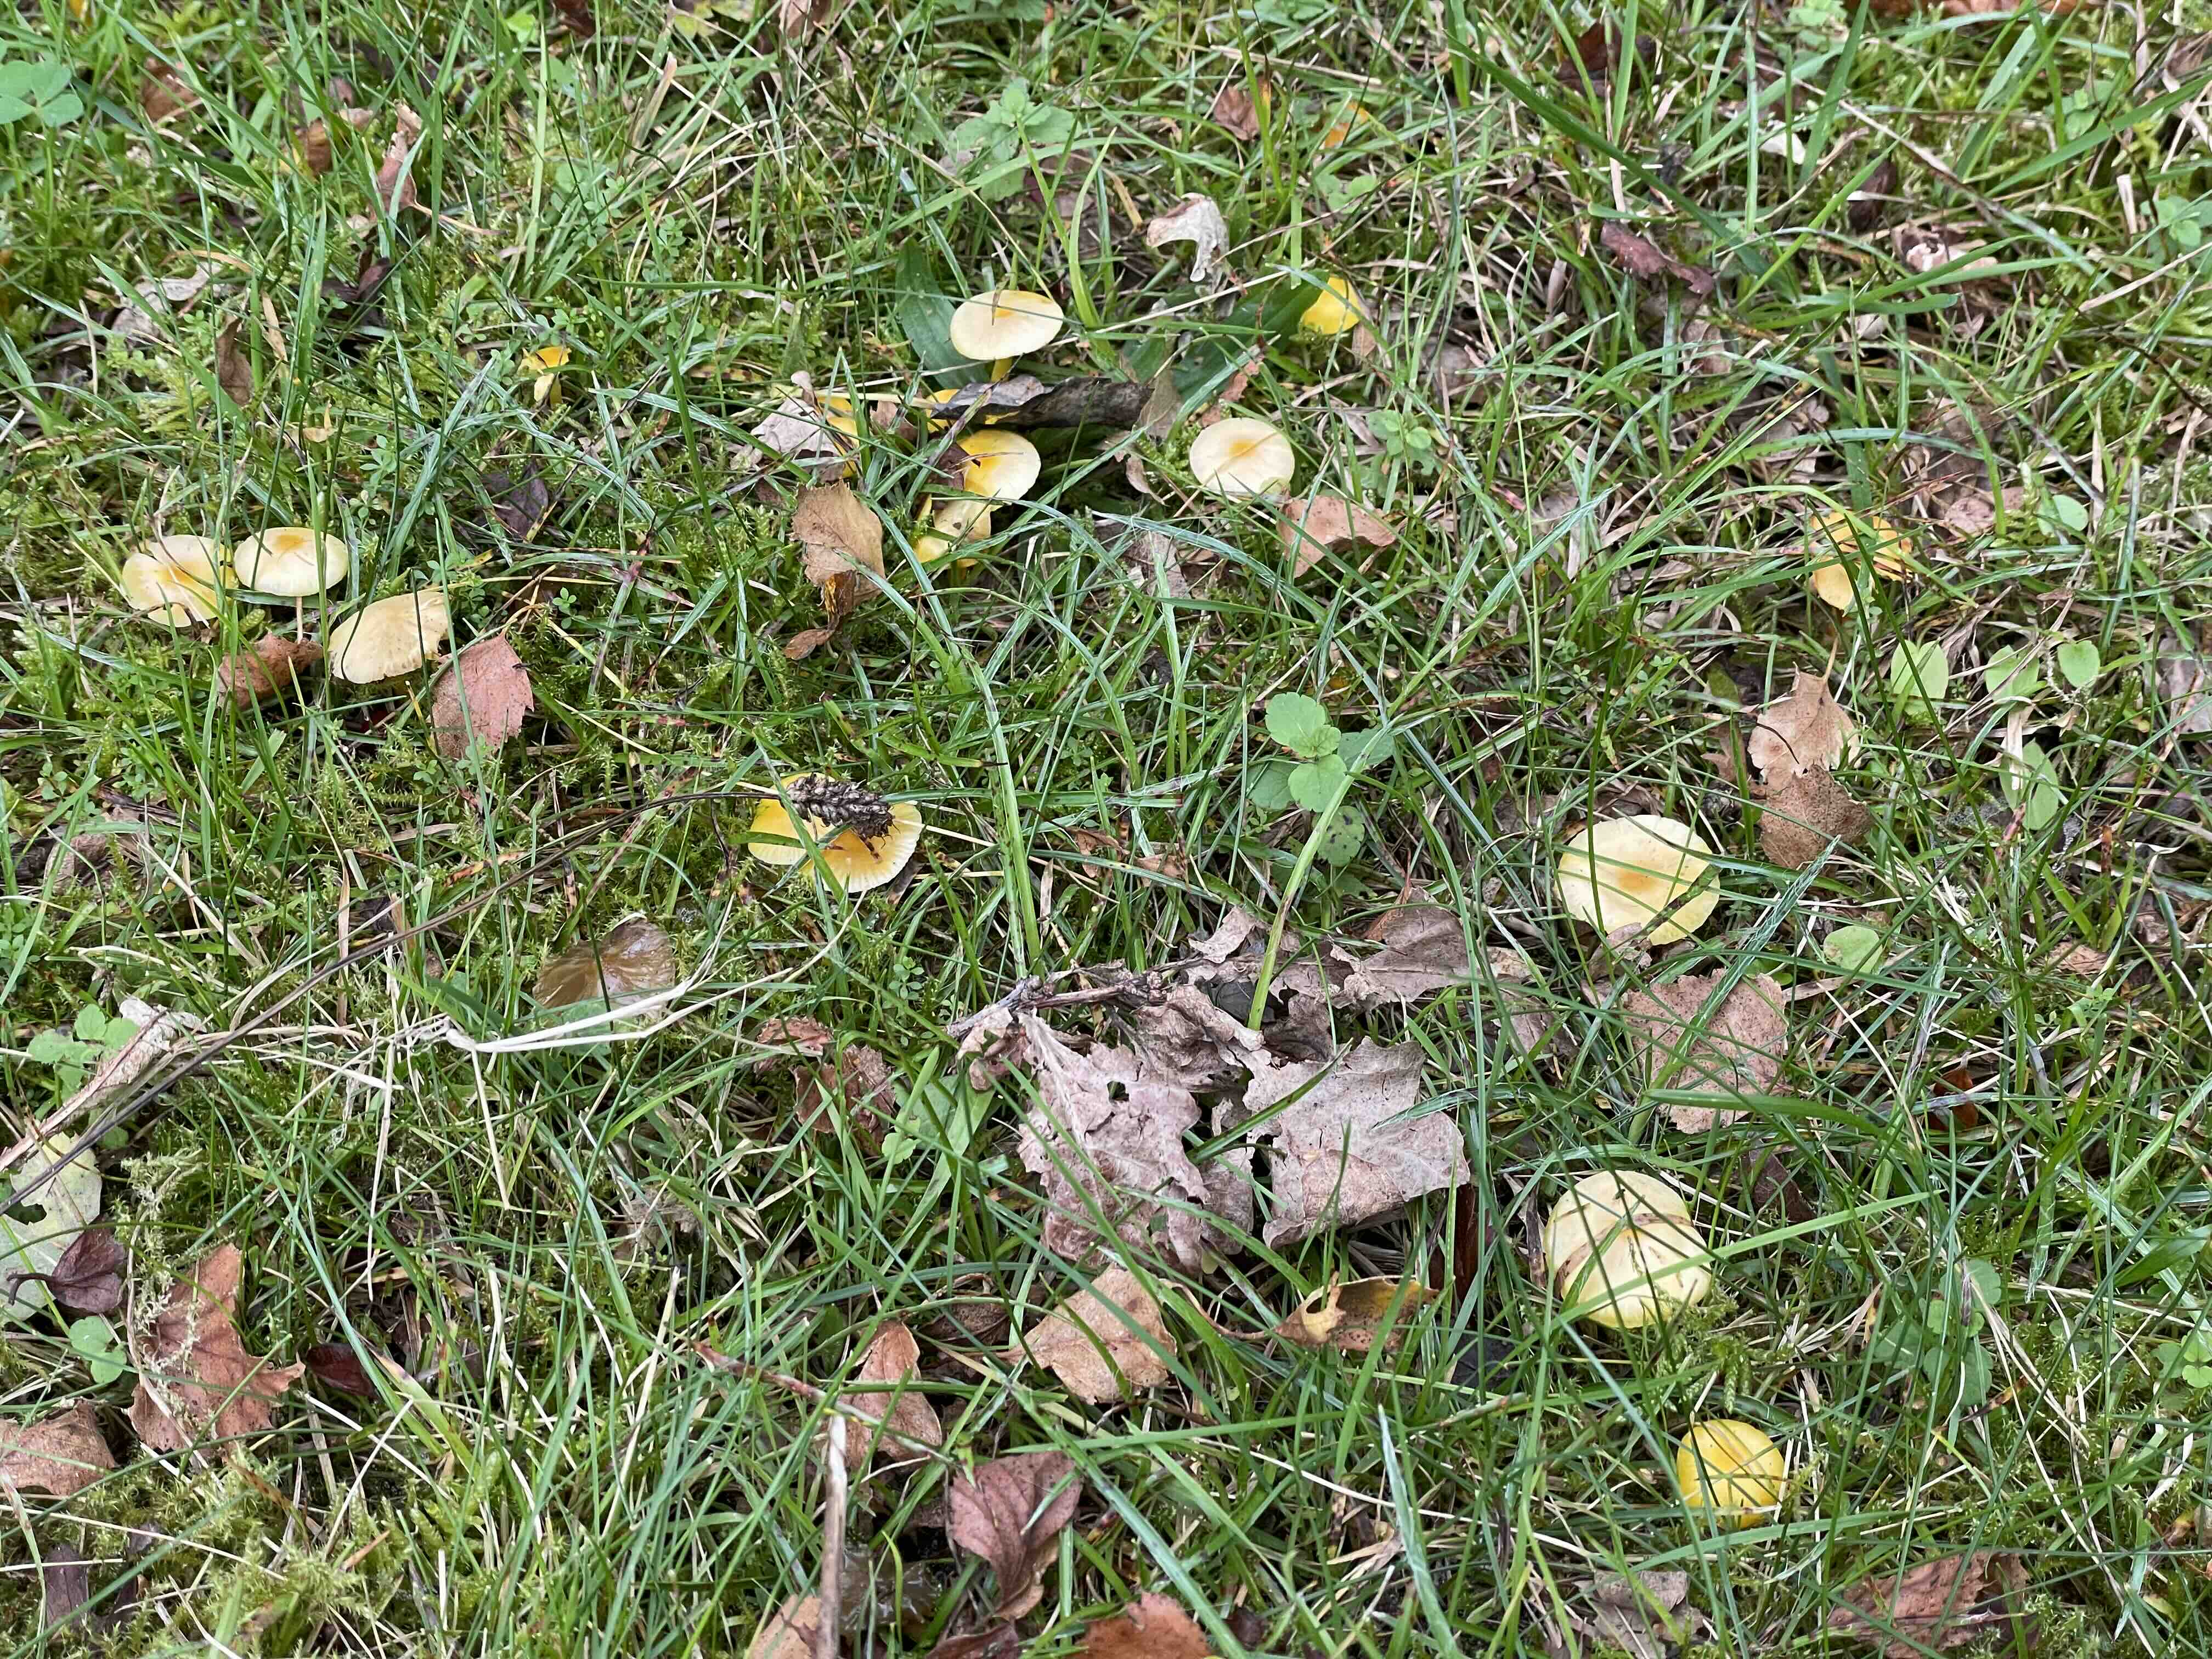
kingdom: Fungi
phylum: Basidiomycota
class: Agaricomycetes
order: Agaricales
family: Hygrophoraceae
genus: Hygrocybe
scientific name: Hygrocybe ceracea
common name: voksgul vokshat
